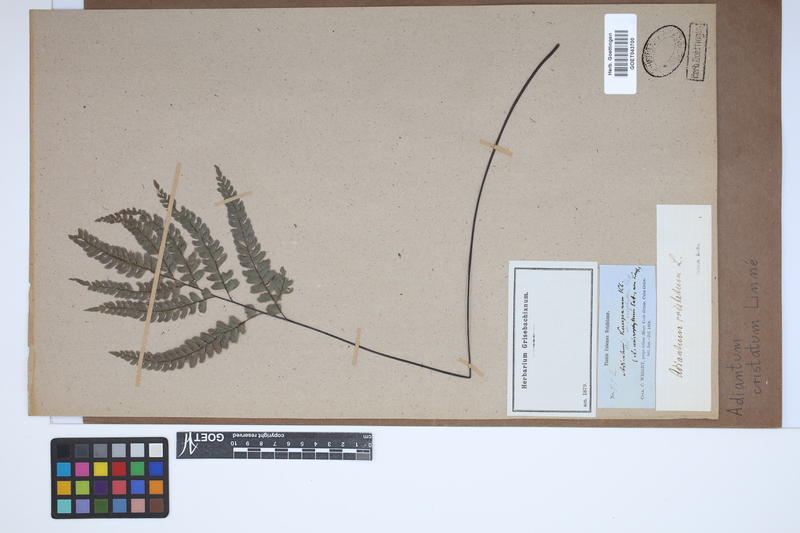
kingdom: Plantae
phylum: Tracheophyta
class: Polypodiopsida
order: Polypodiales
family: Pteridaceae
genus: Adiantum
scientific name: Adiantum pyramidale
